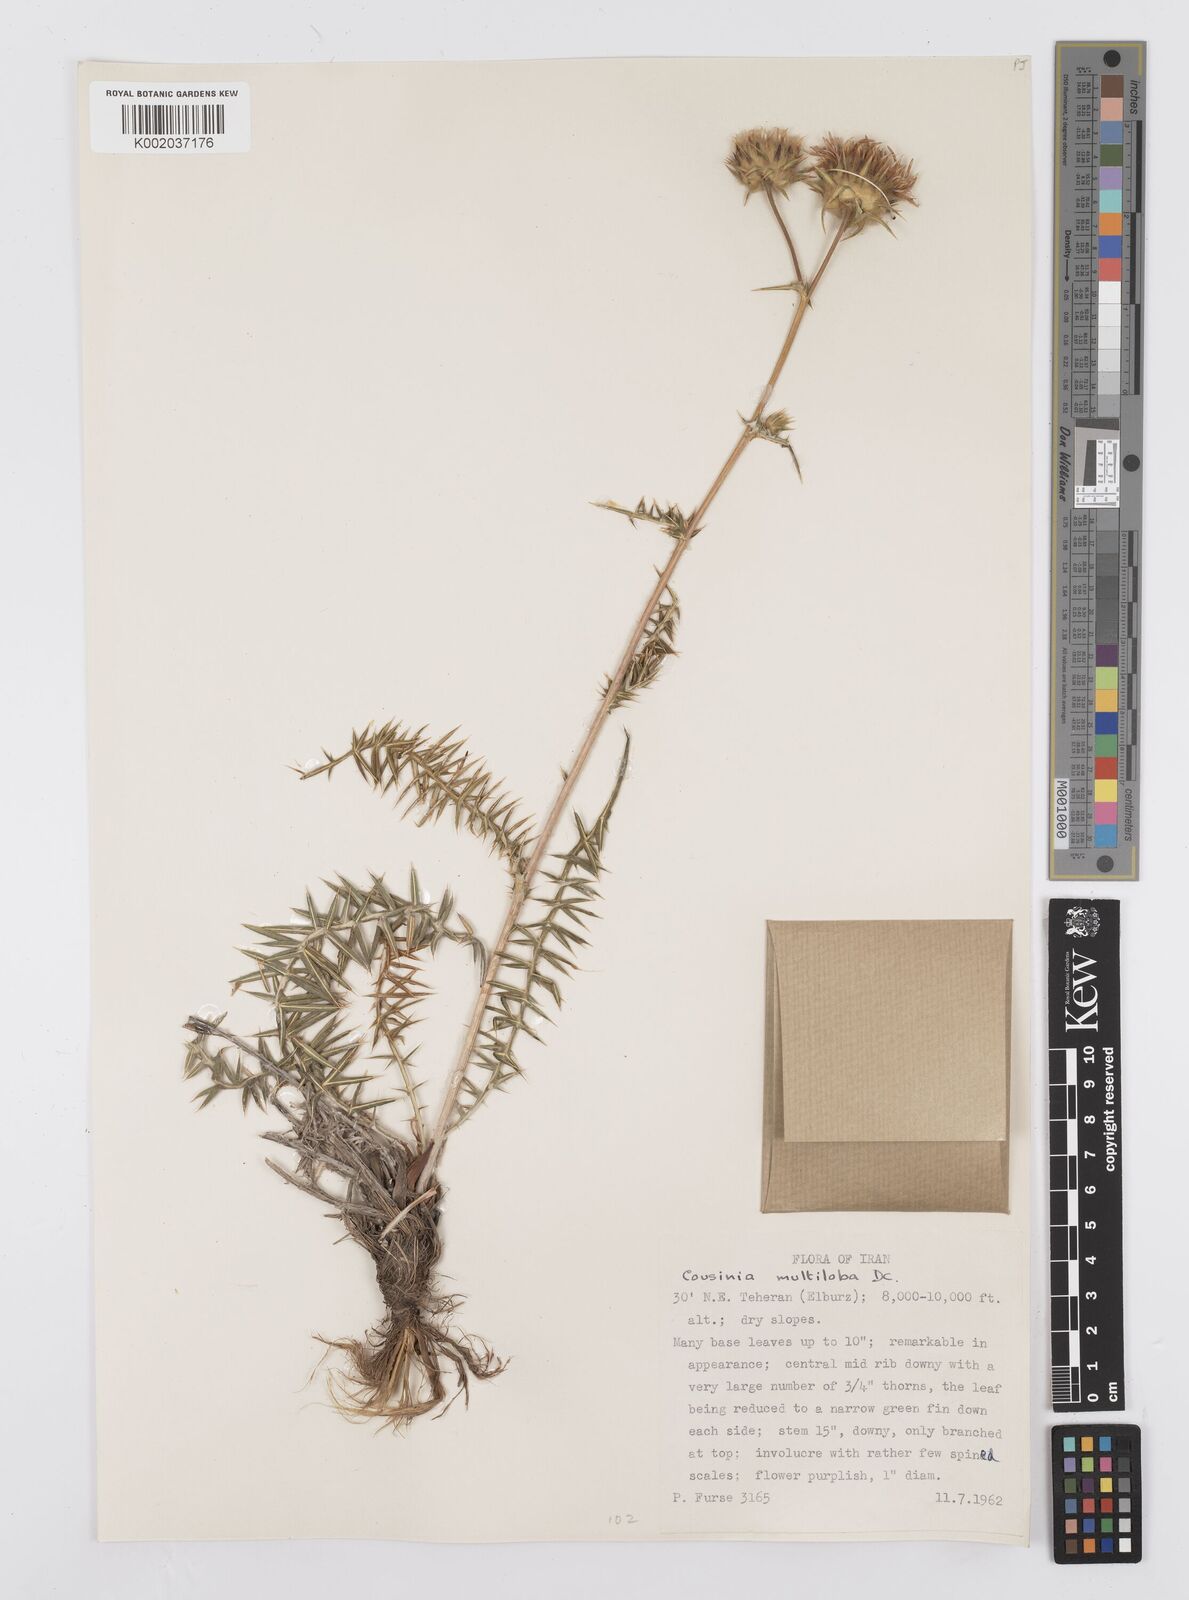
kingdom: Plantae
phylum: Tracheophyta
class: Magnoliopsida
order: Asterales
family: Asteraceae
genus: Cousinia
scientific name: Cousinia multiloba
